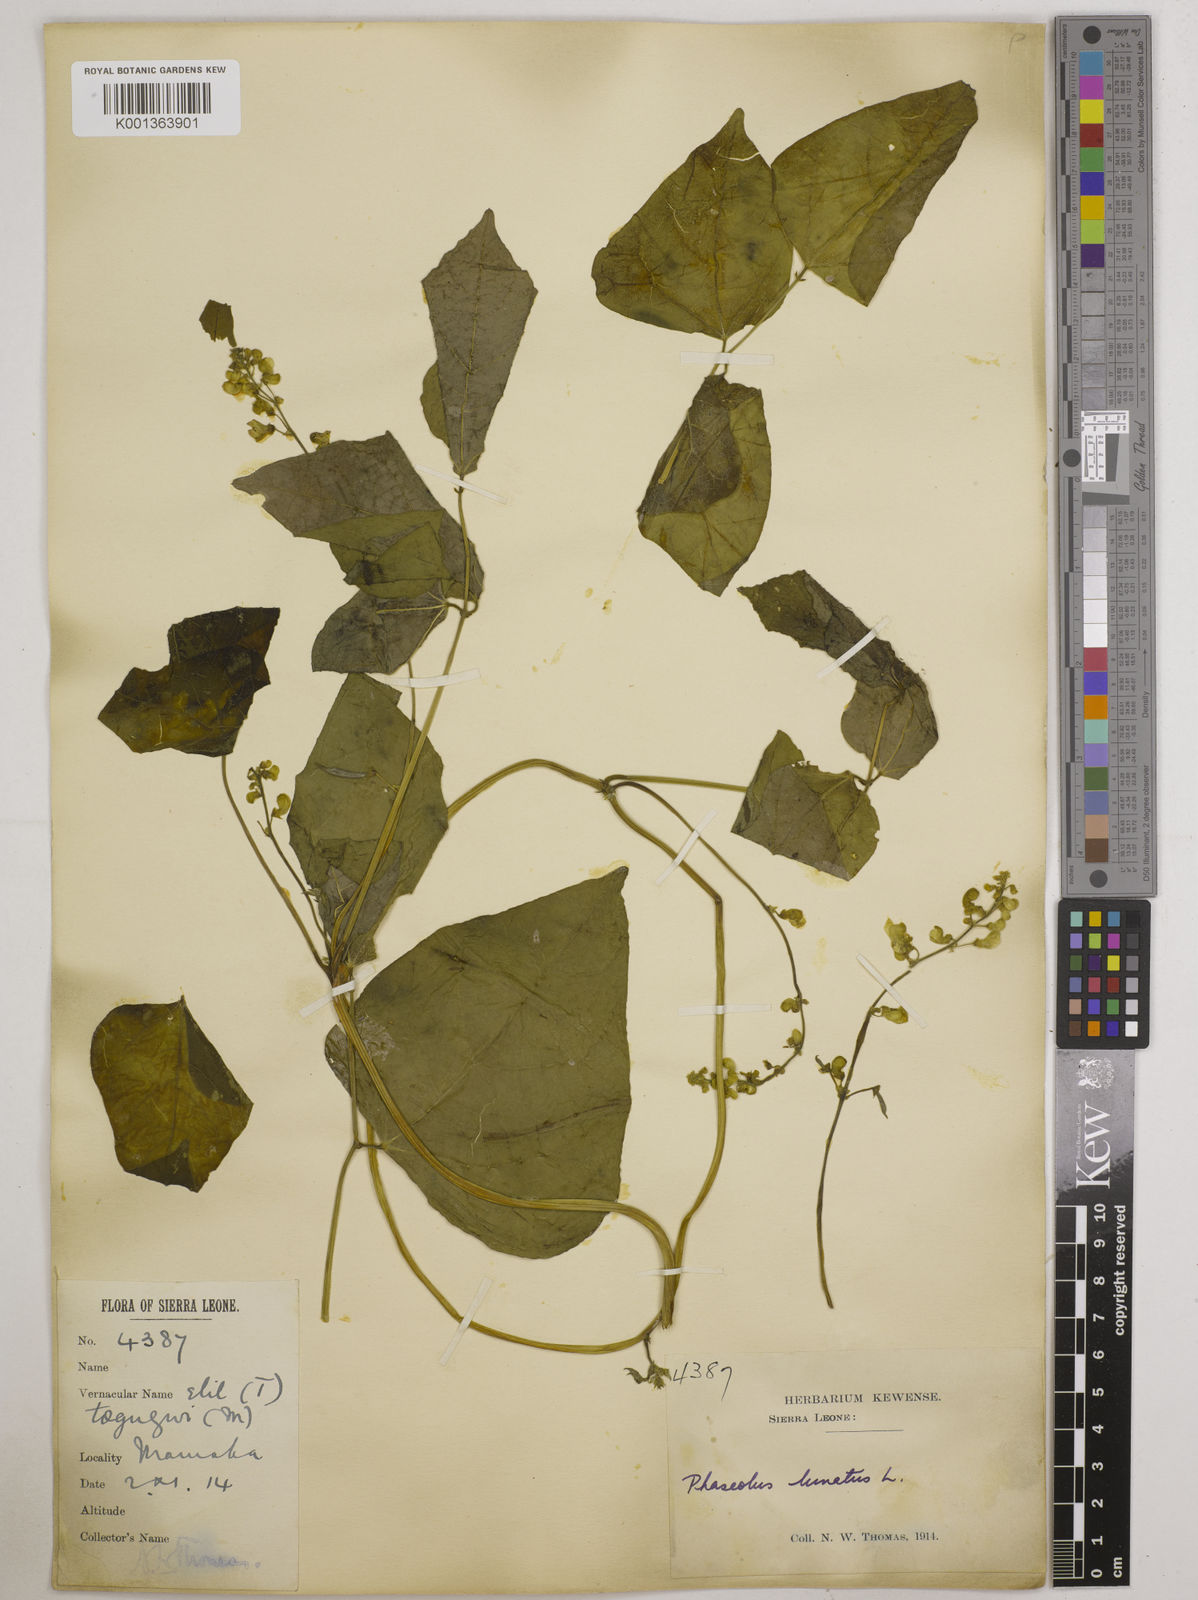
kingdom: Plantae
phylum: Tracheophyta
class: Magnoliopsida
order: Fabales
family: Fabaceae
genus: Phaseolus
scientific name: Phaseolus lunatus
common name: Sieva bean
